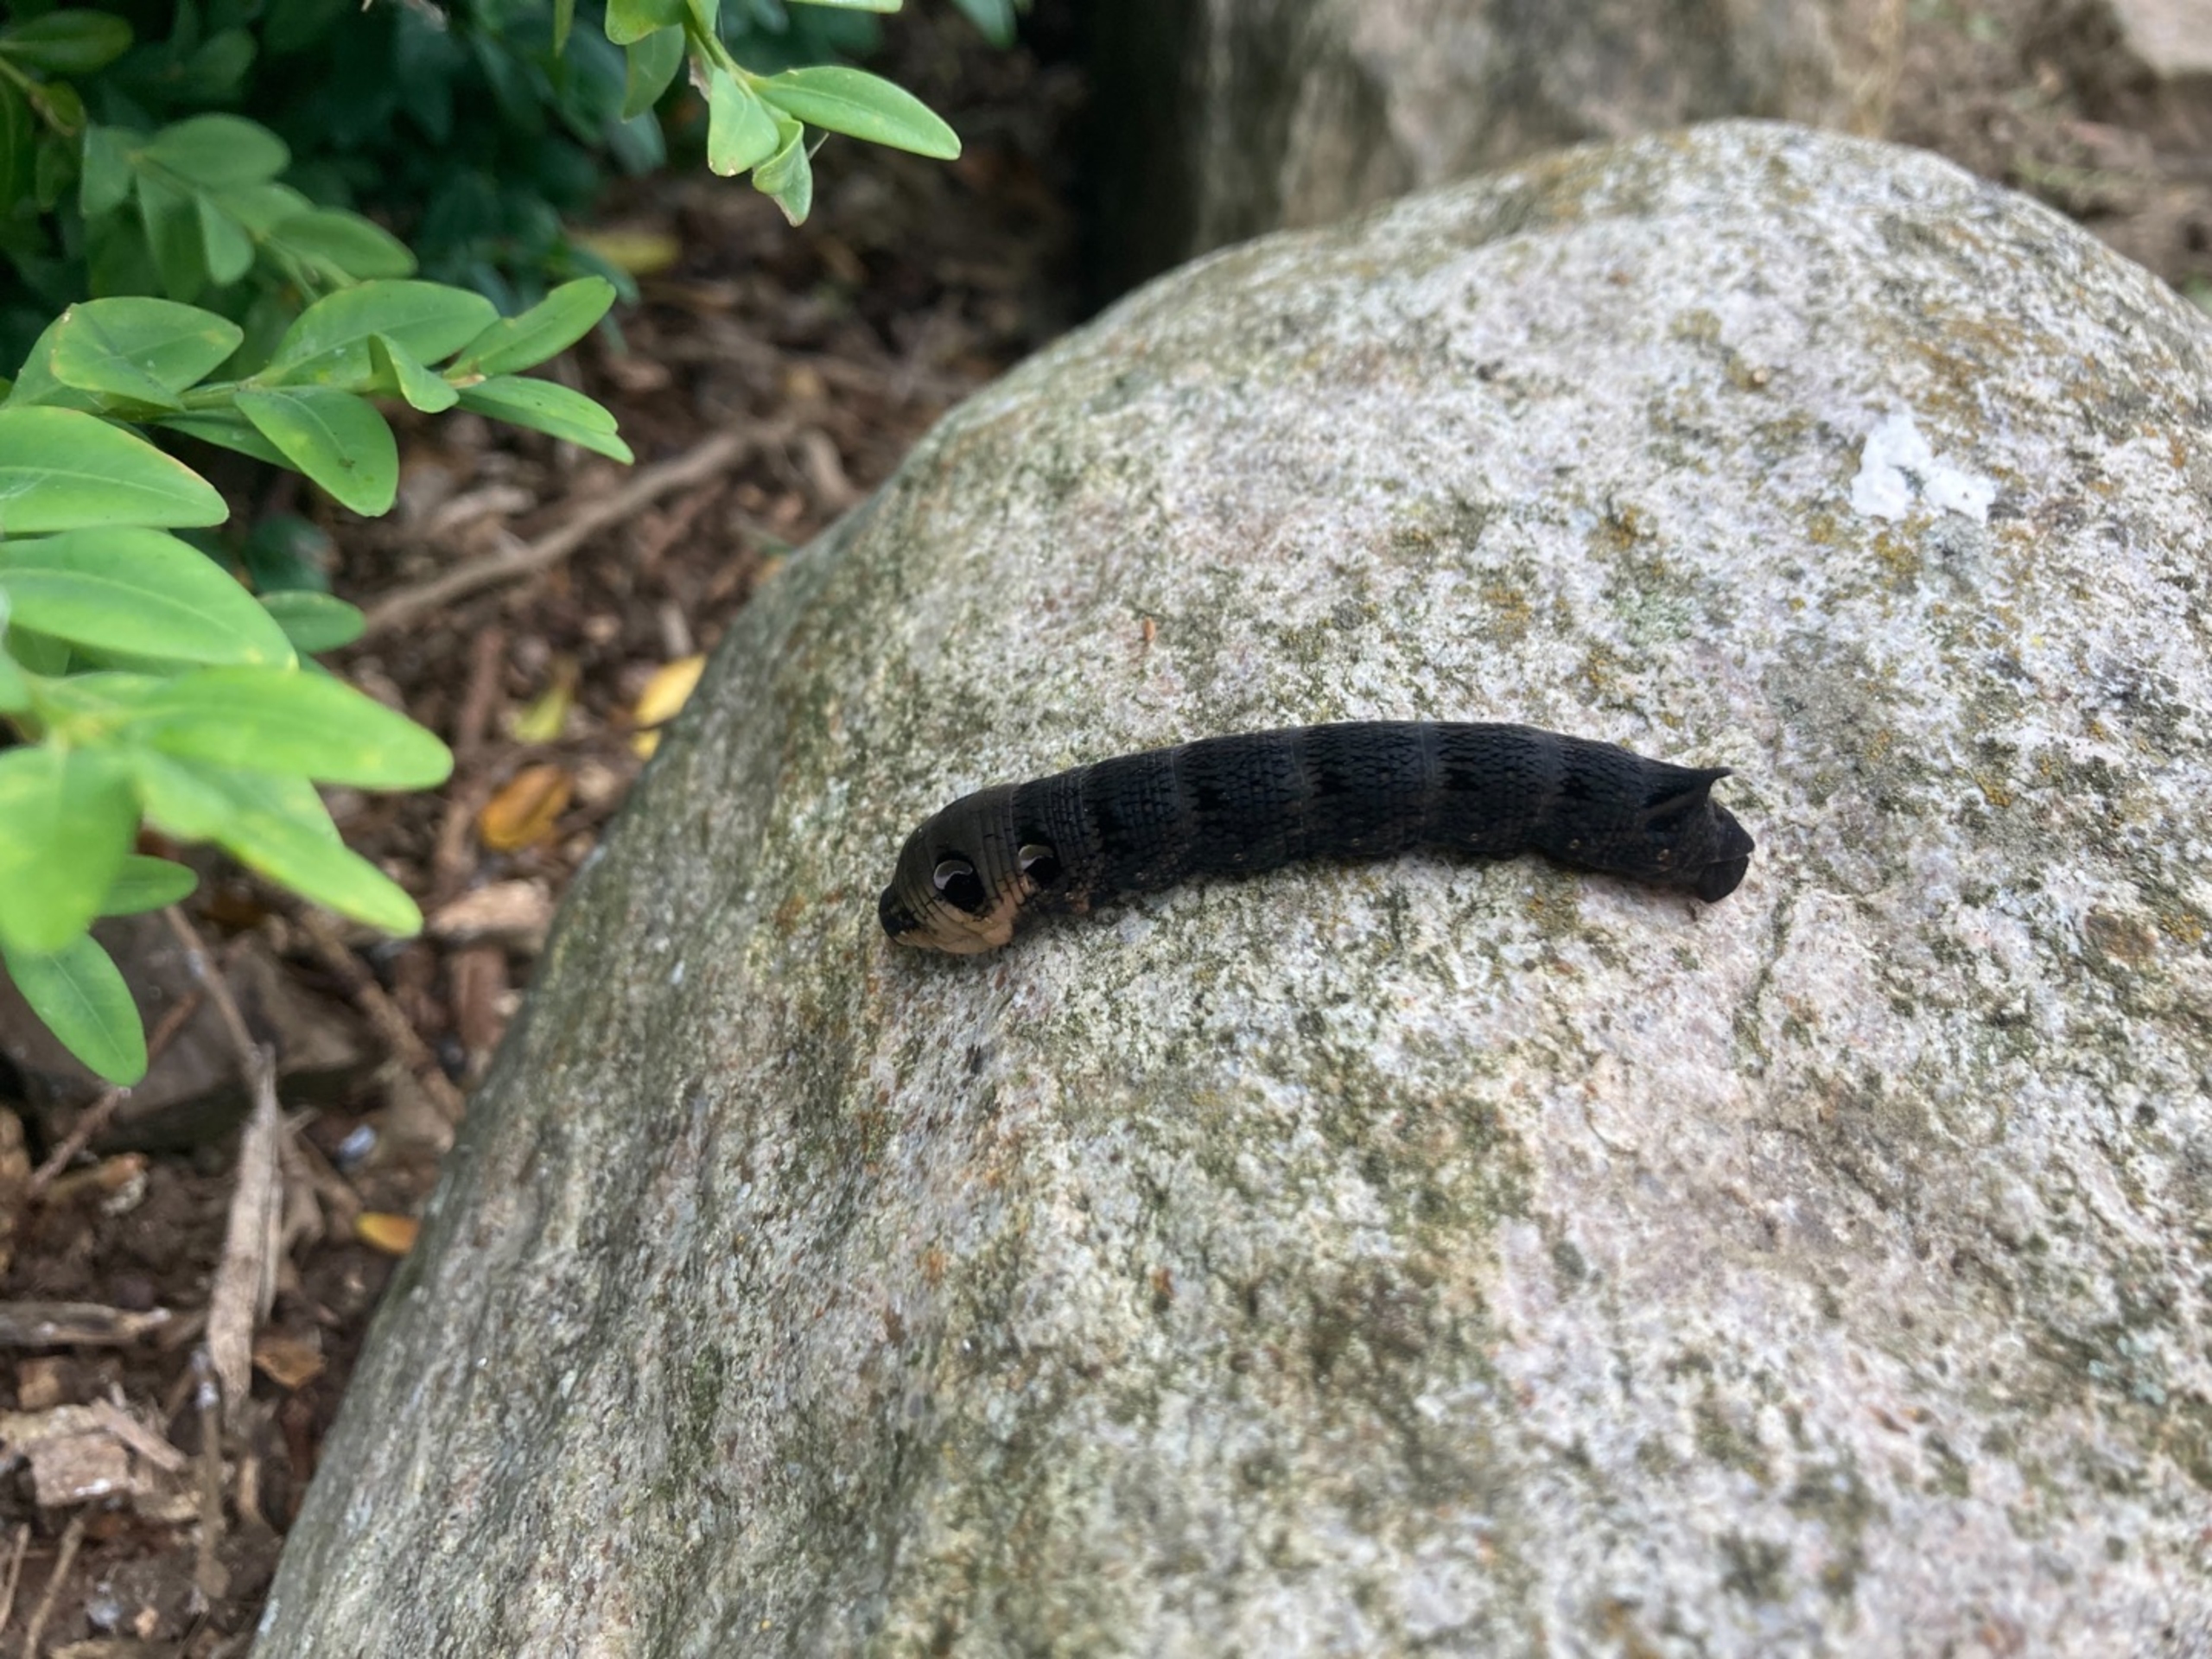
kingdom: Animalia
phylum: Arthropoda
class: Insecta
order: Lepidoptera
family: Sphingidae
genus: Deilephila
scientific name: Deilephila elpenor
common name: Dueurtsværmer
